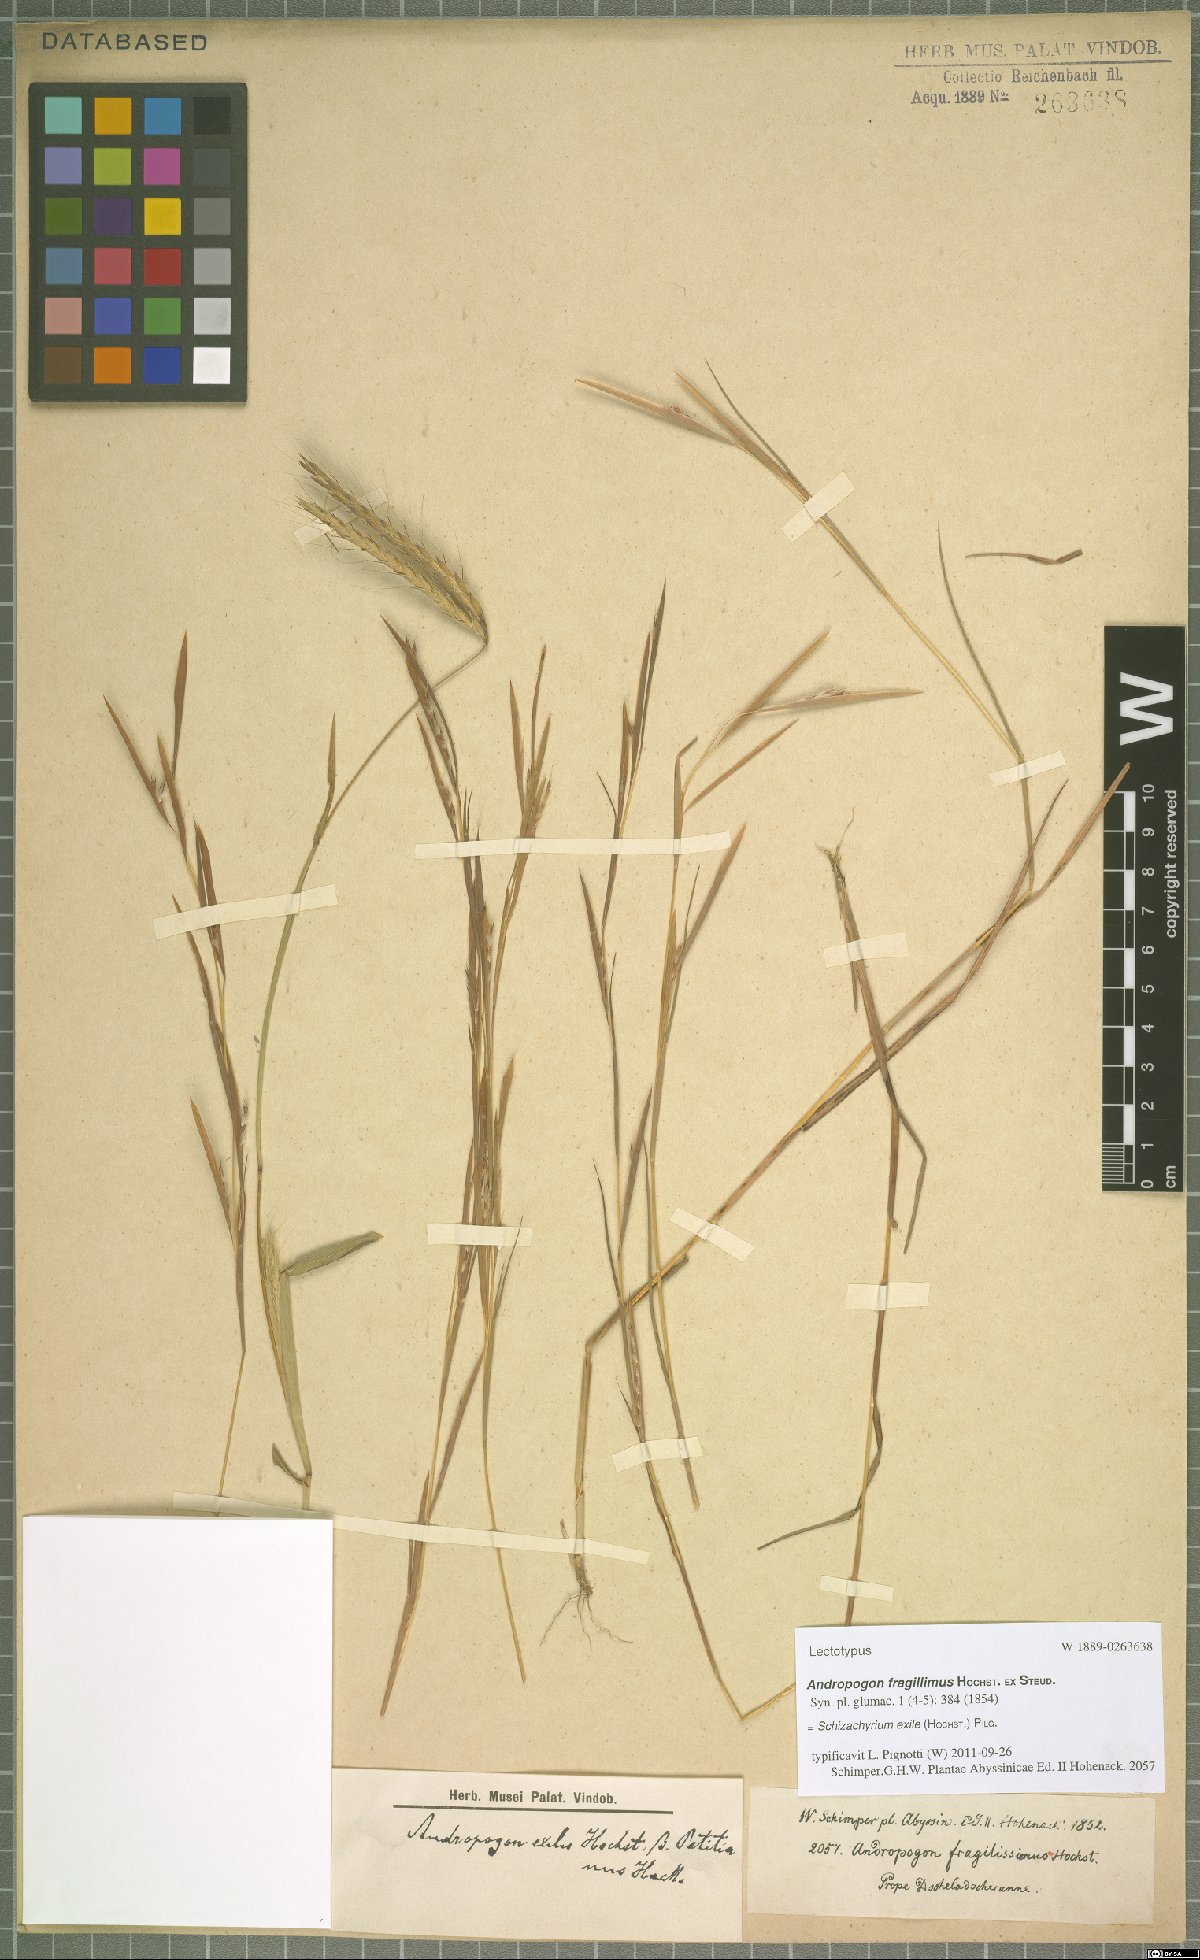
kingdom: Plantae
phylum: Tracheophyta
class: Liliopsida
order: Poales
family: Poaceae
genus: Schizachyrium
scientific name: Schizachyrium exile
